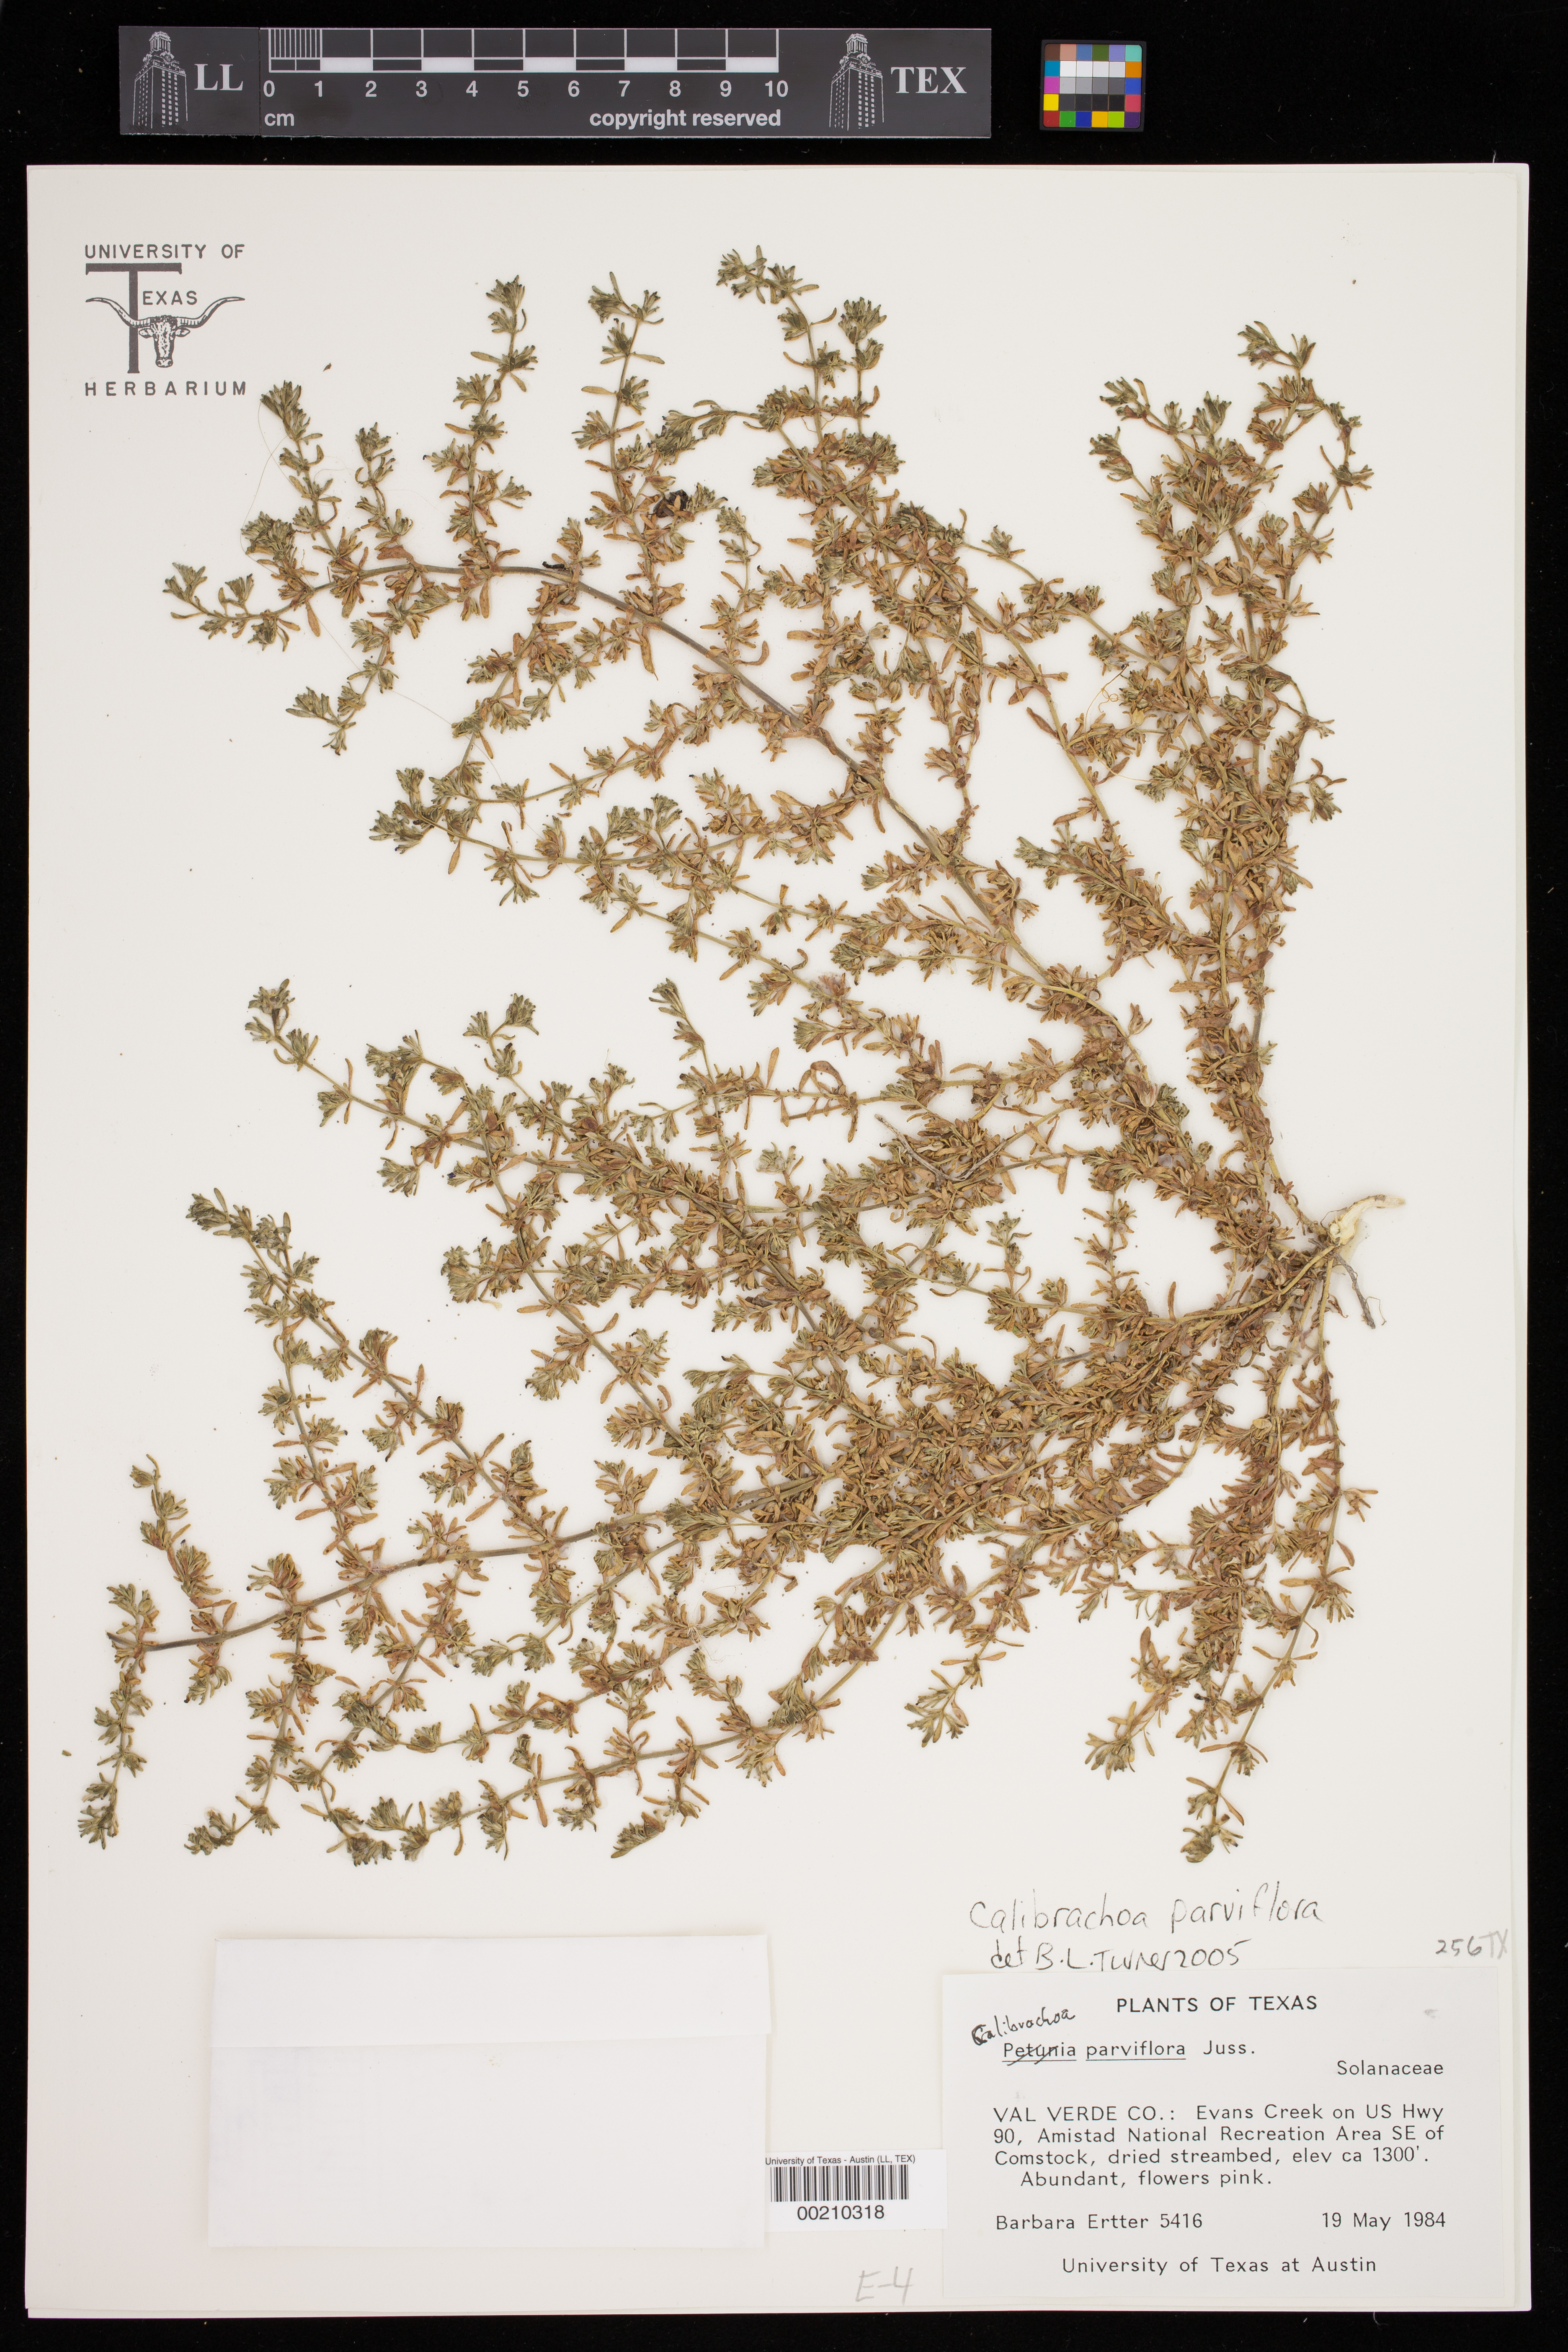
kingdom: Plantae
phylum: Tracheophyta
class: Magnoliopsida
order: Solanales
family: Solanaceae
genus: Calibrachoa
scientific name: Calibrachoa parviflora
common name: Seaside petunia
